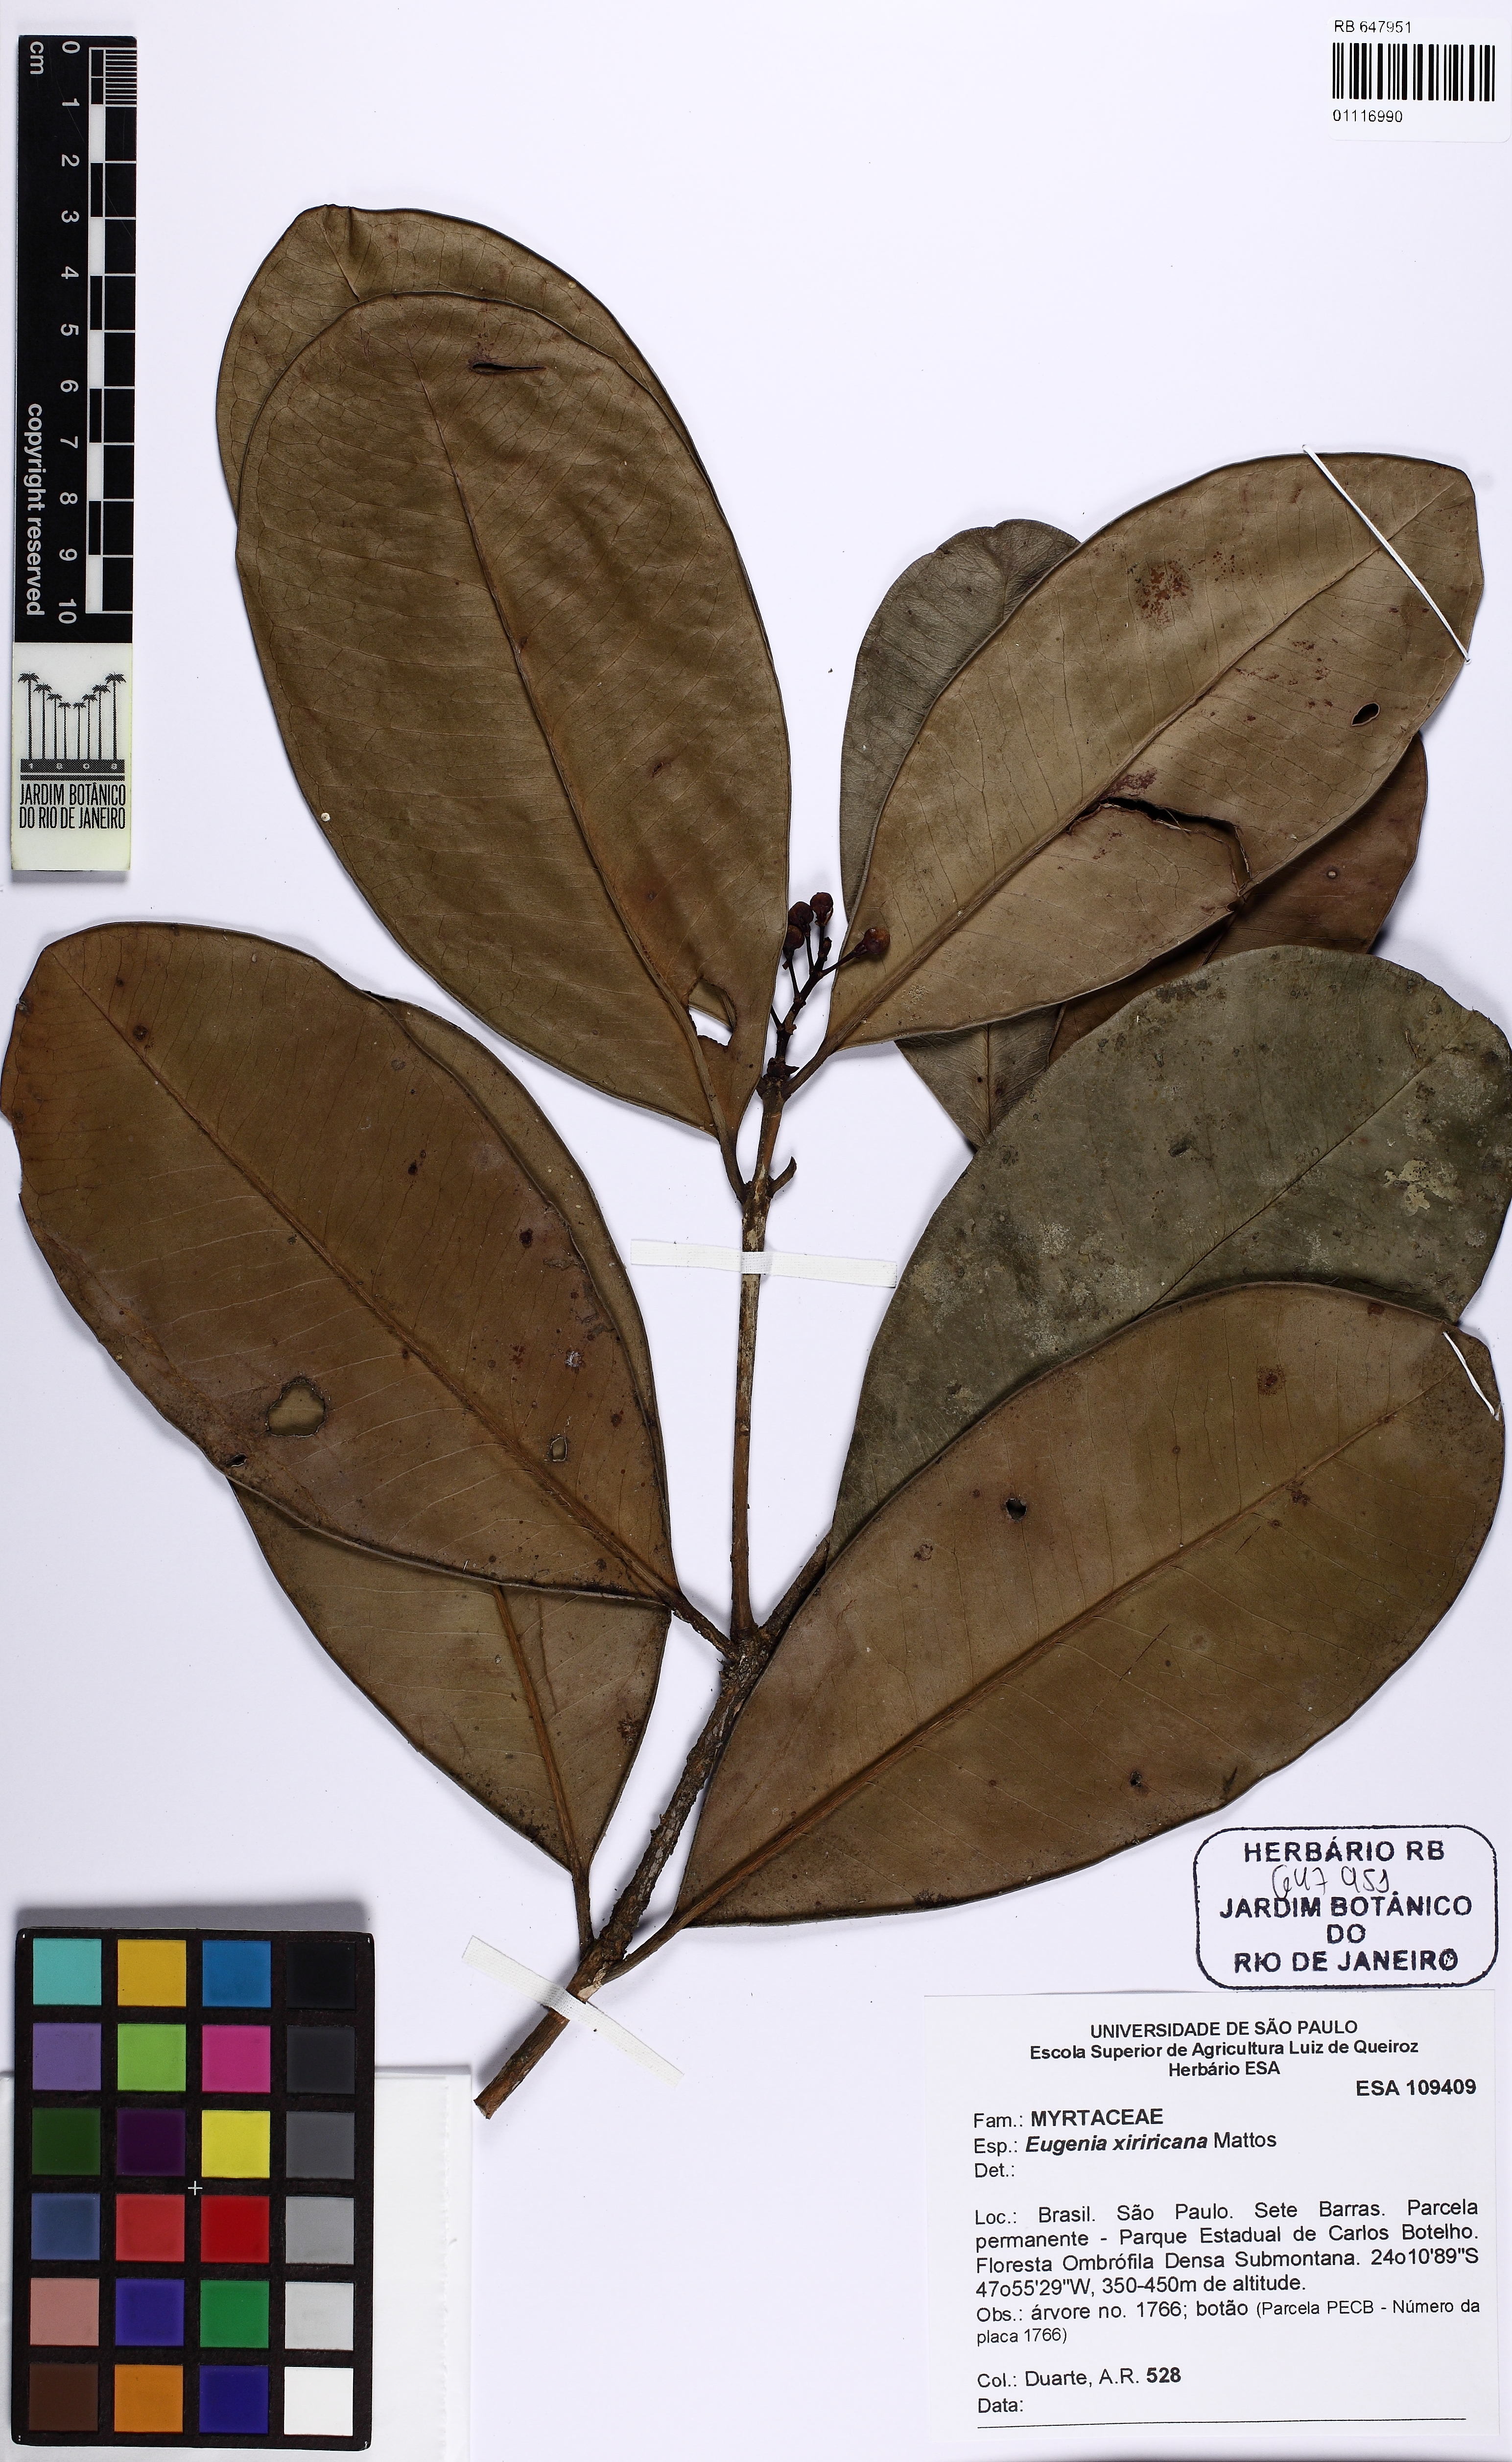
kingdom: Plantae
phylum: Tracheophyta
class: Magnoliopsida
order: Myrtales
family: Myrtaceae
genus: Eugenia
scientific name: Eugenia xiriricana
